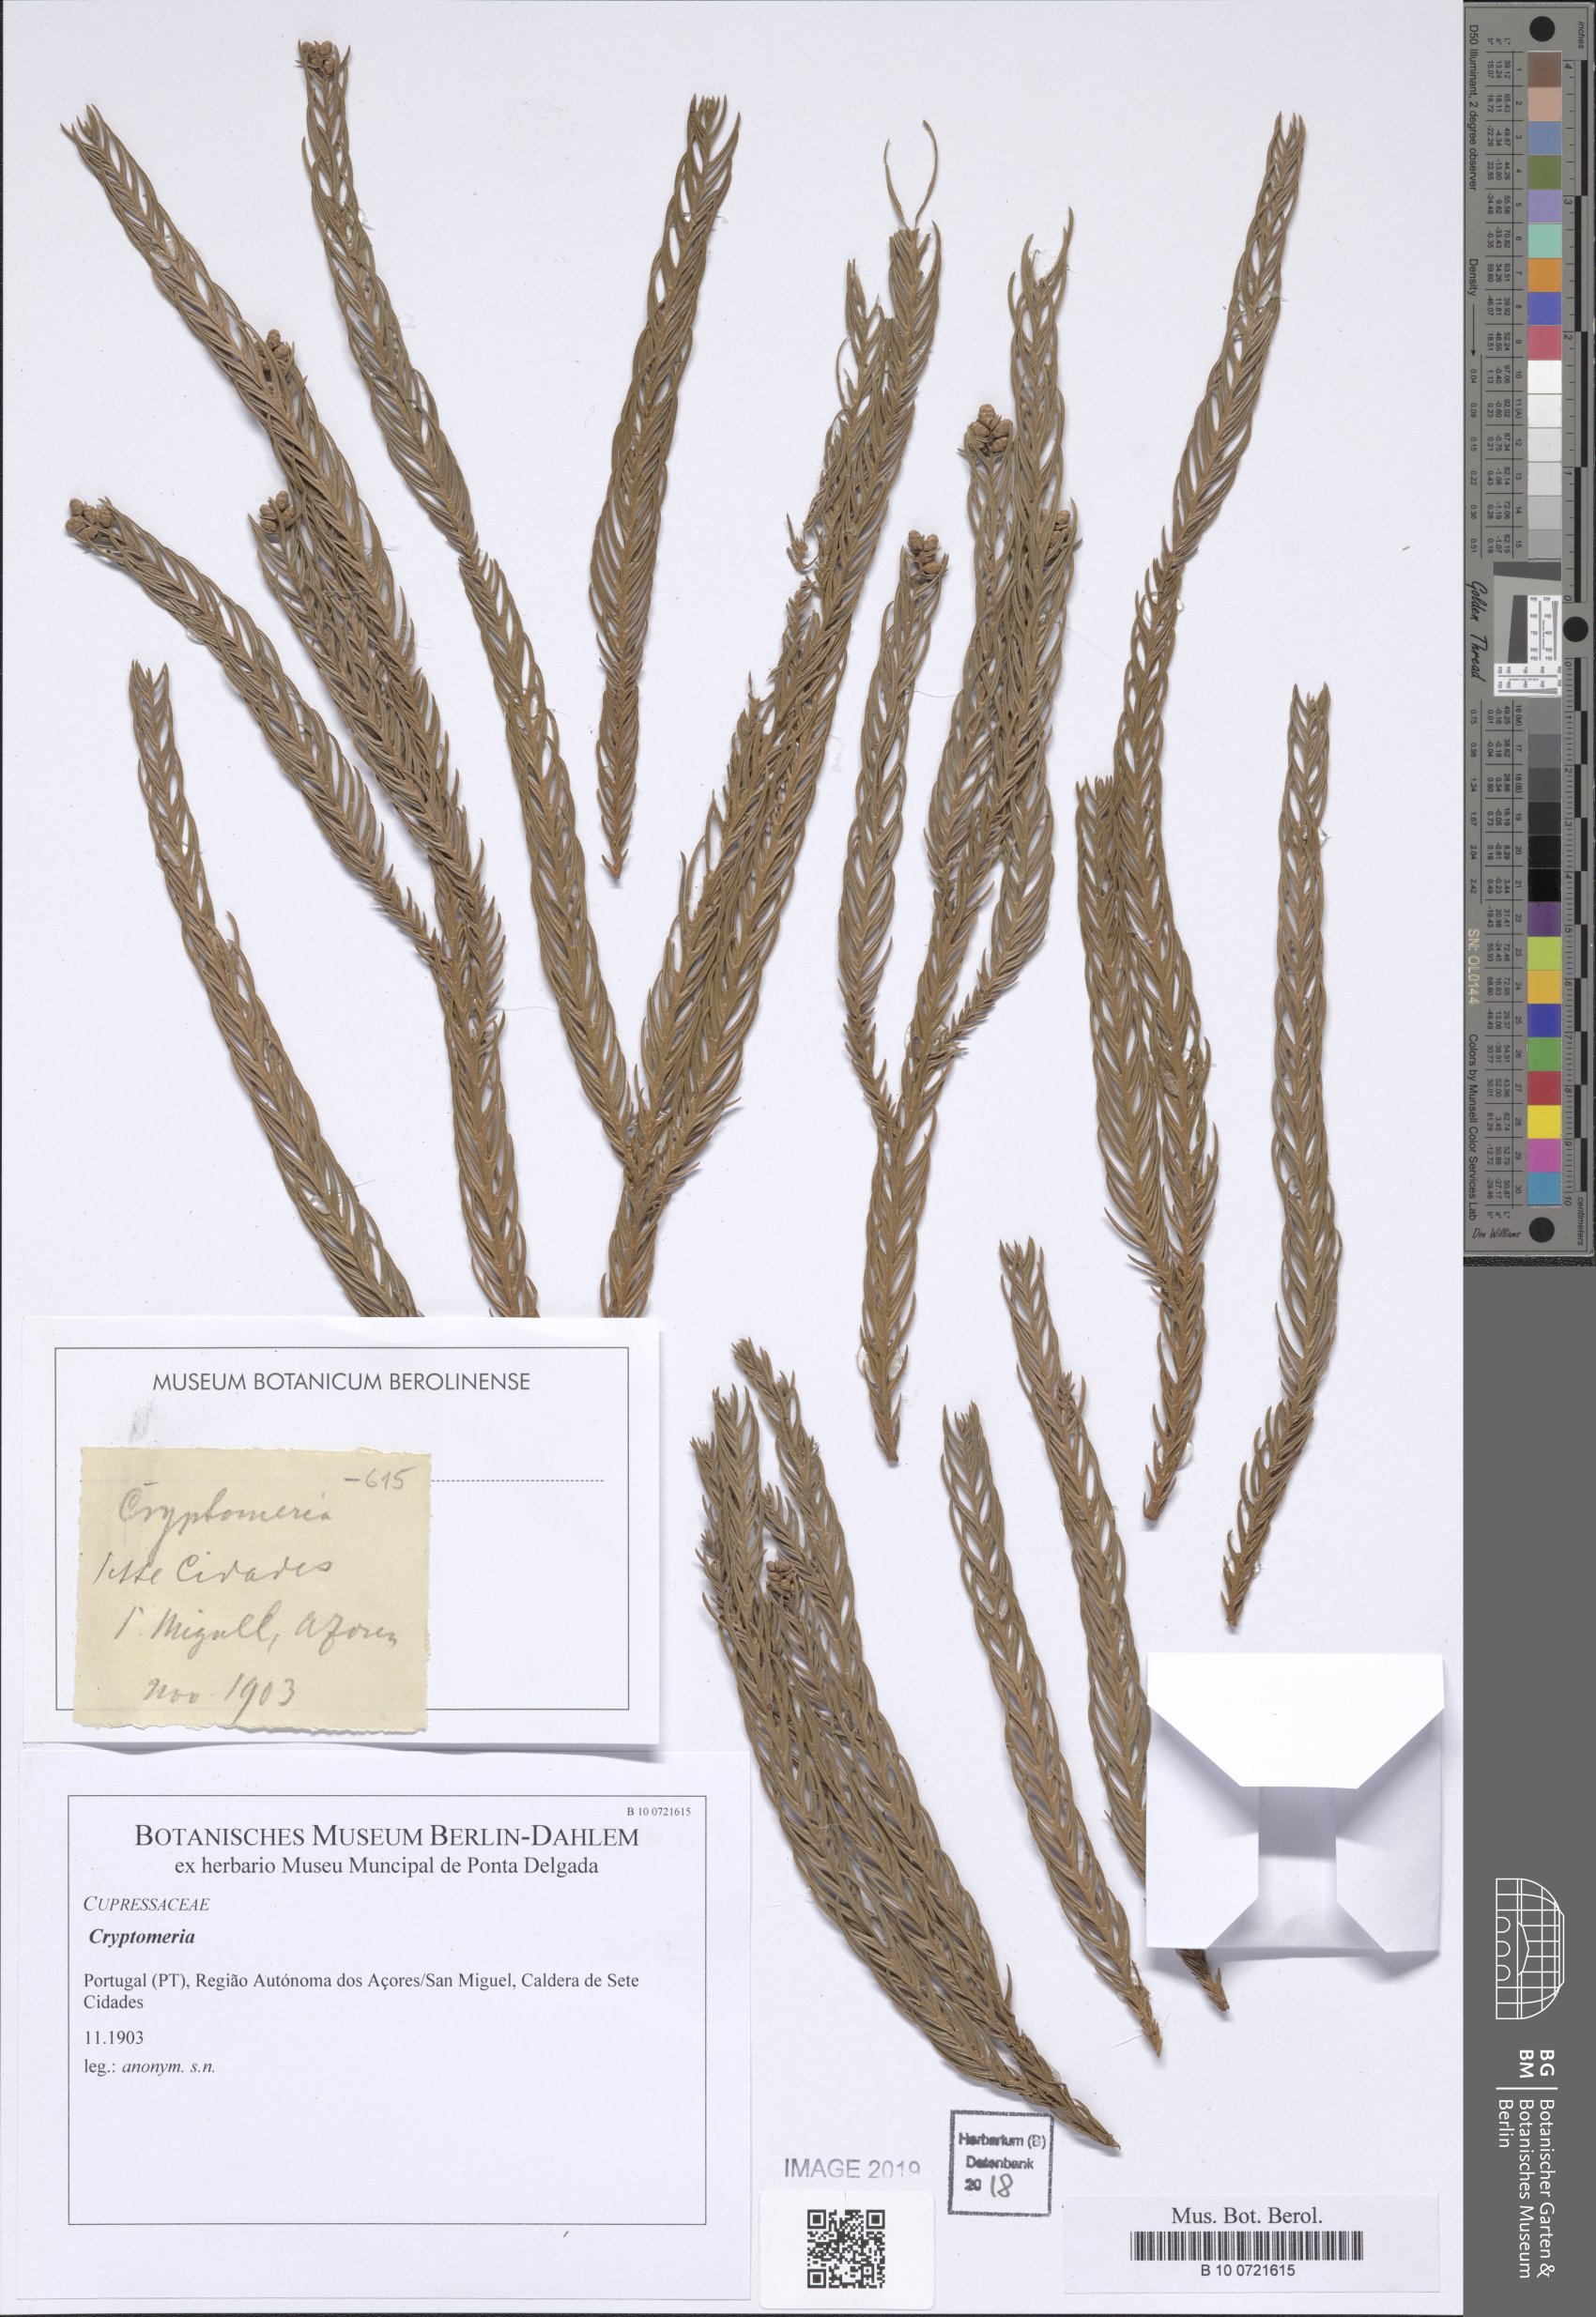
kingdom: Plantae
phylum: Tracheophyta
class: Pinopsida
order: Pinales
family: Cupressaceae
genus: Cryptomeria
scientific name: Cryptomeria
